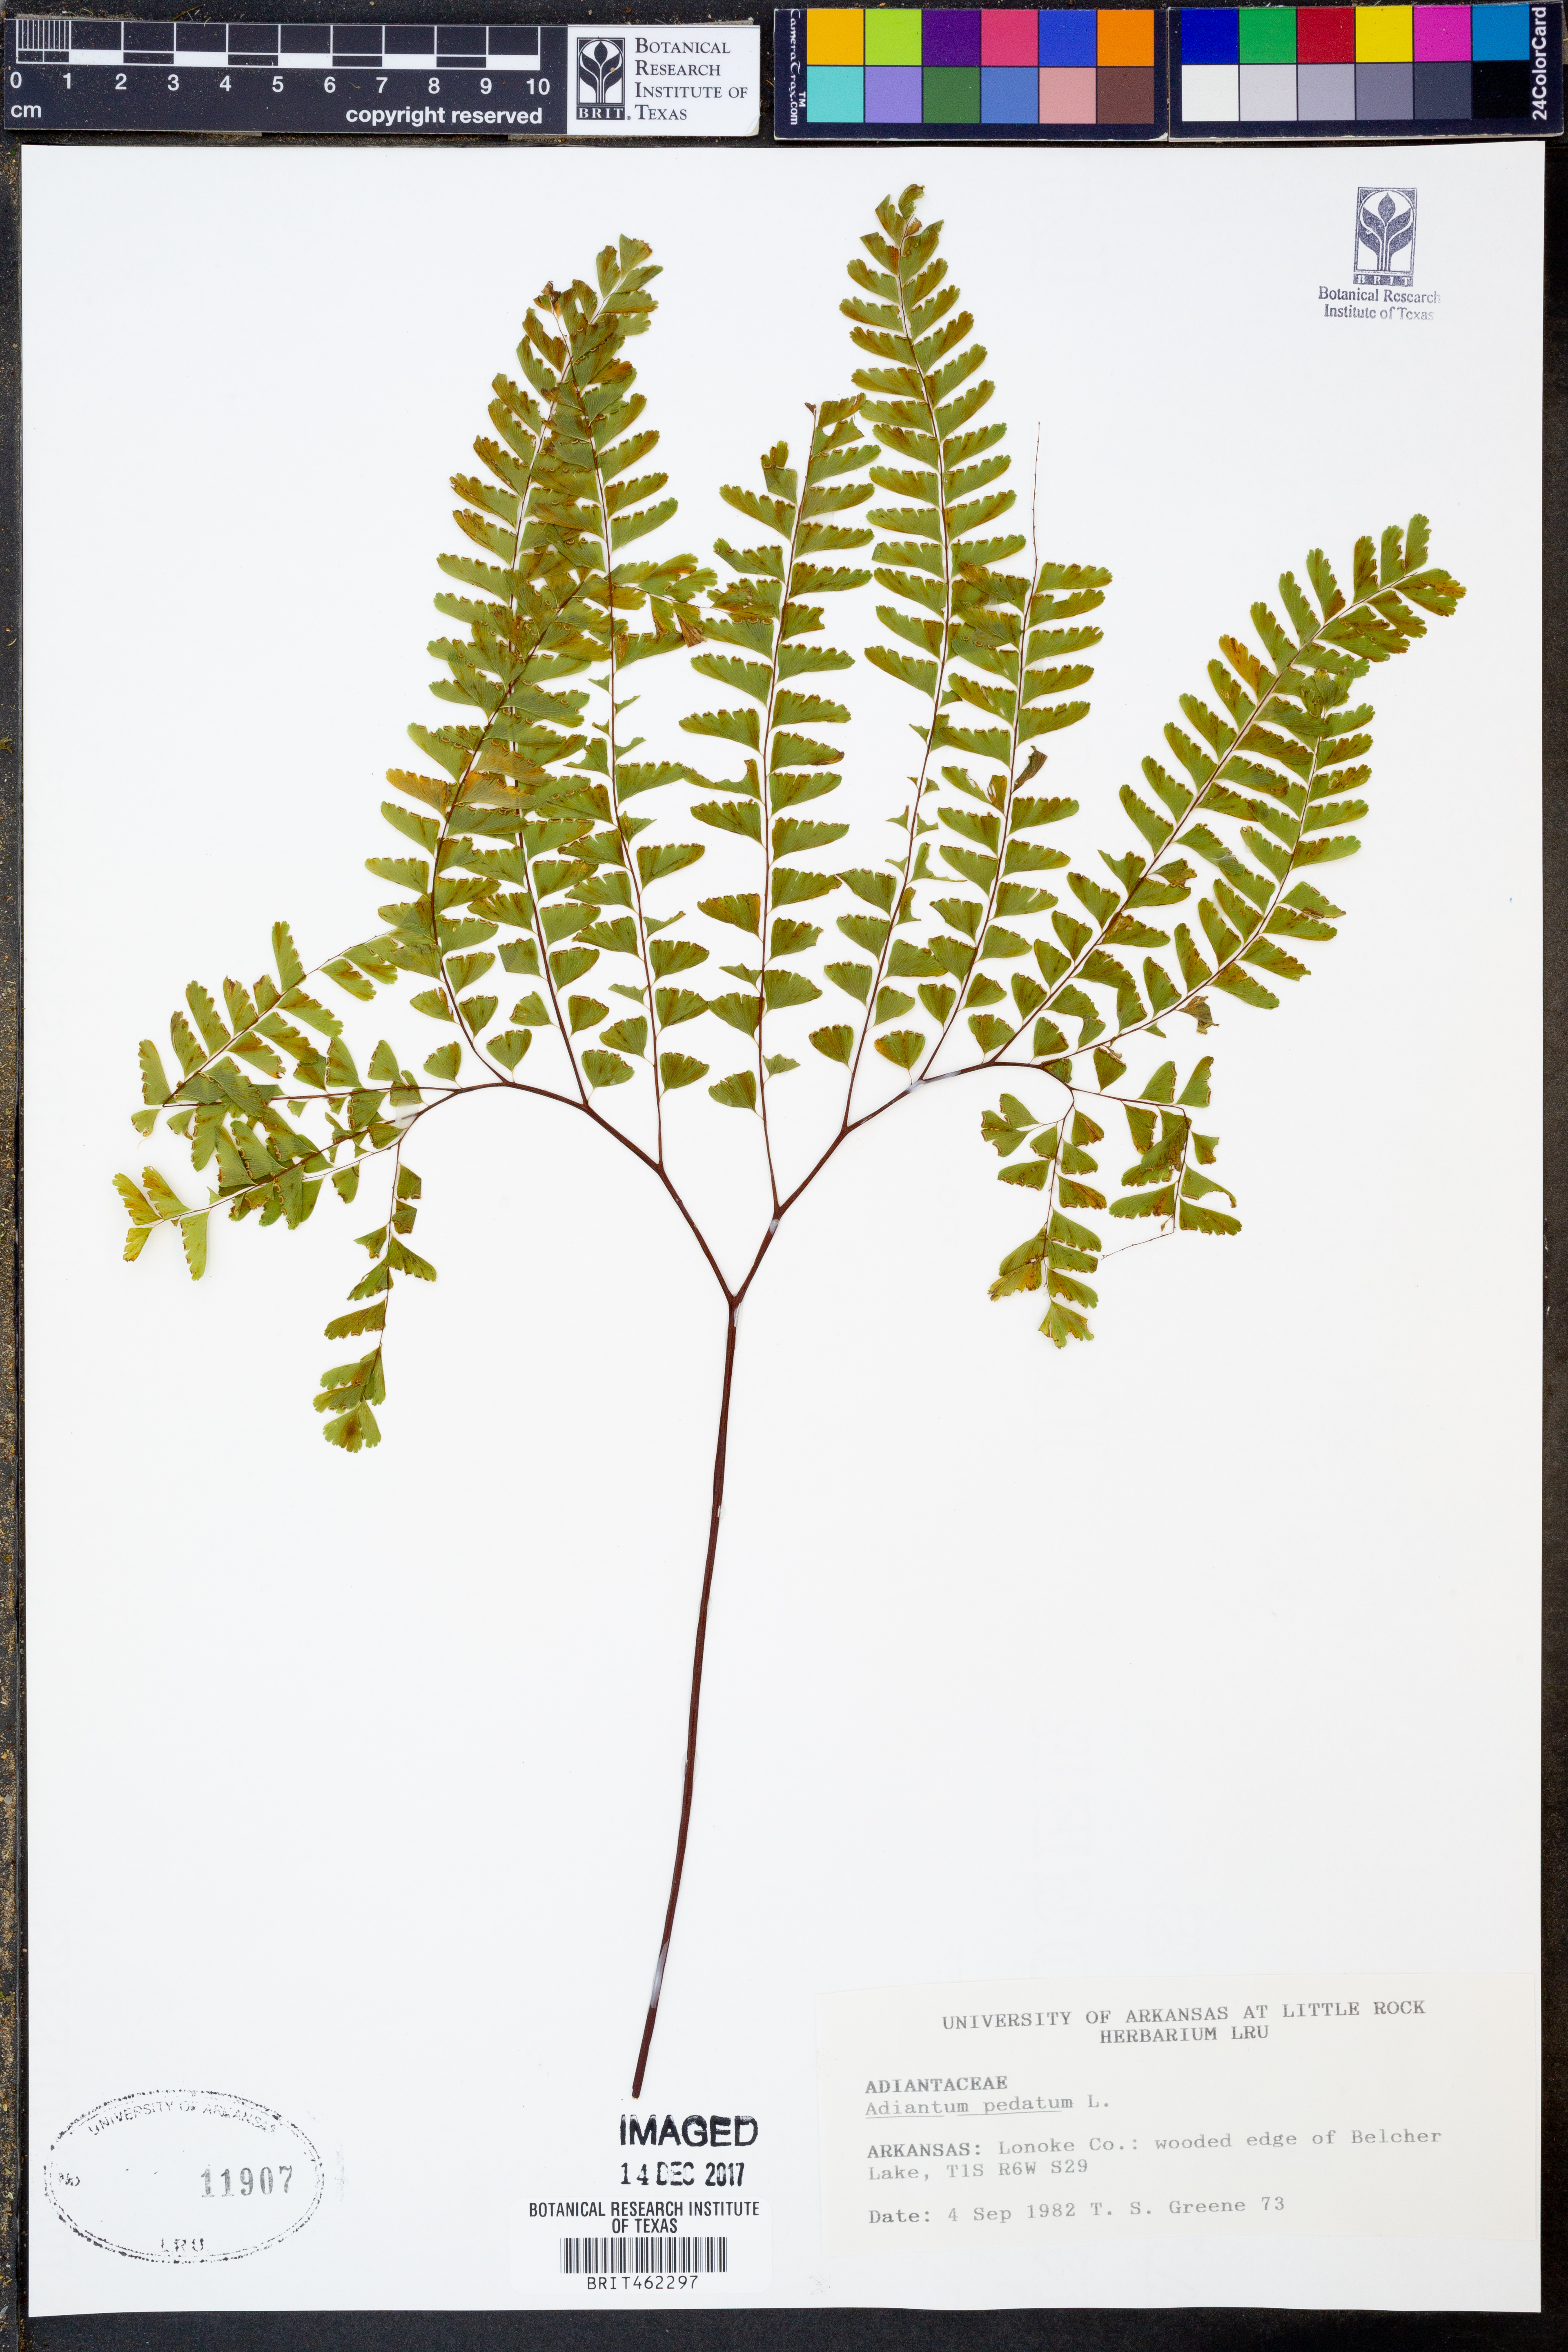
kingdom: Plantae
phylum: Tracheophyta
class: Polypodiopsida
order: Polypodiales
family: Pteridaceae
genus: Adiantum
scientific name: Adiantum pedatum
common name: Five-finger fern
